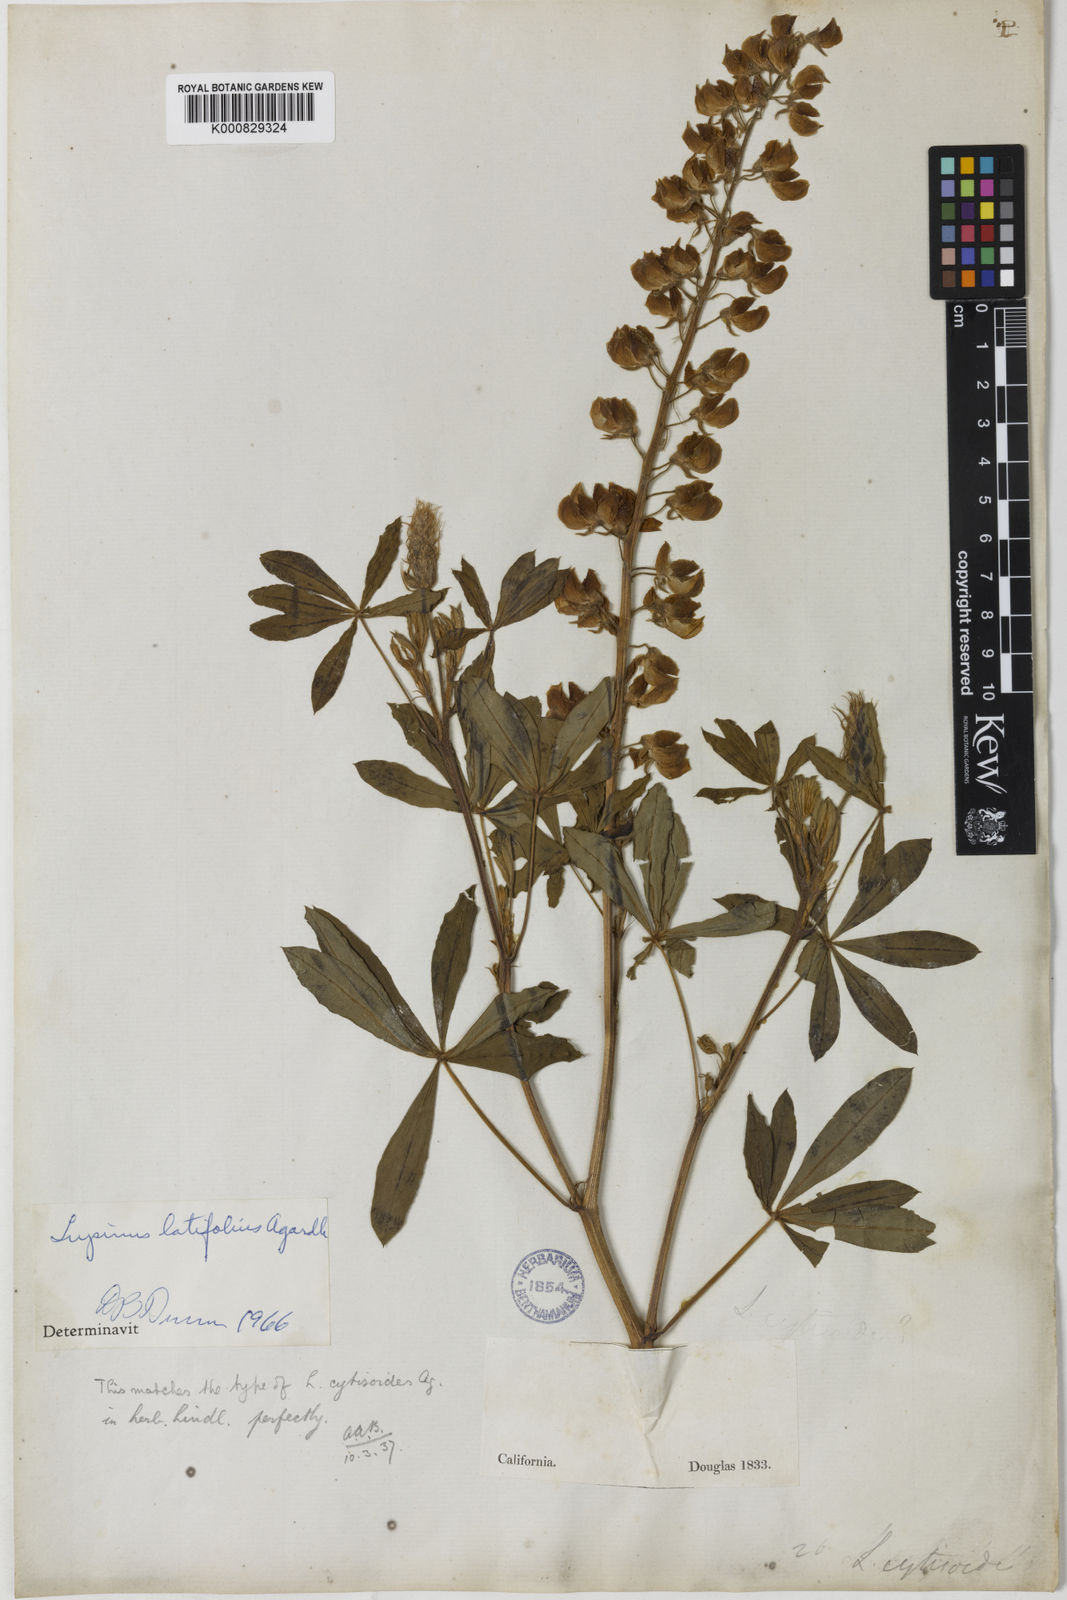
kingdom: Plantae
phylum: Tracheophyta
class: Magnoliopsida
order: Fabales
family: Fabaceae
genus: Lupinus
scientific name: Lupinus latifolius
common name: Broad-leaved lupine
